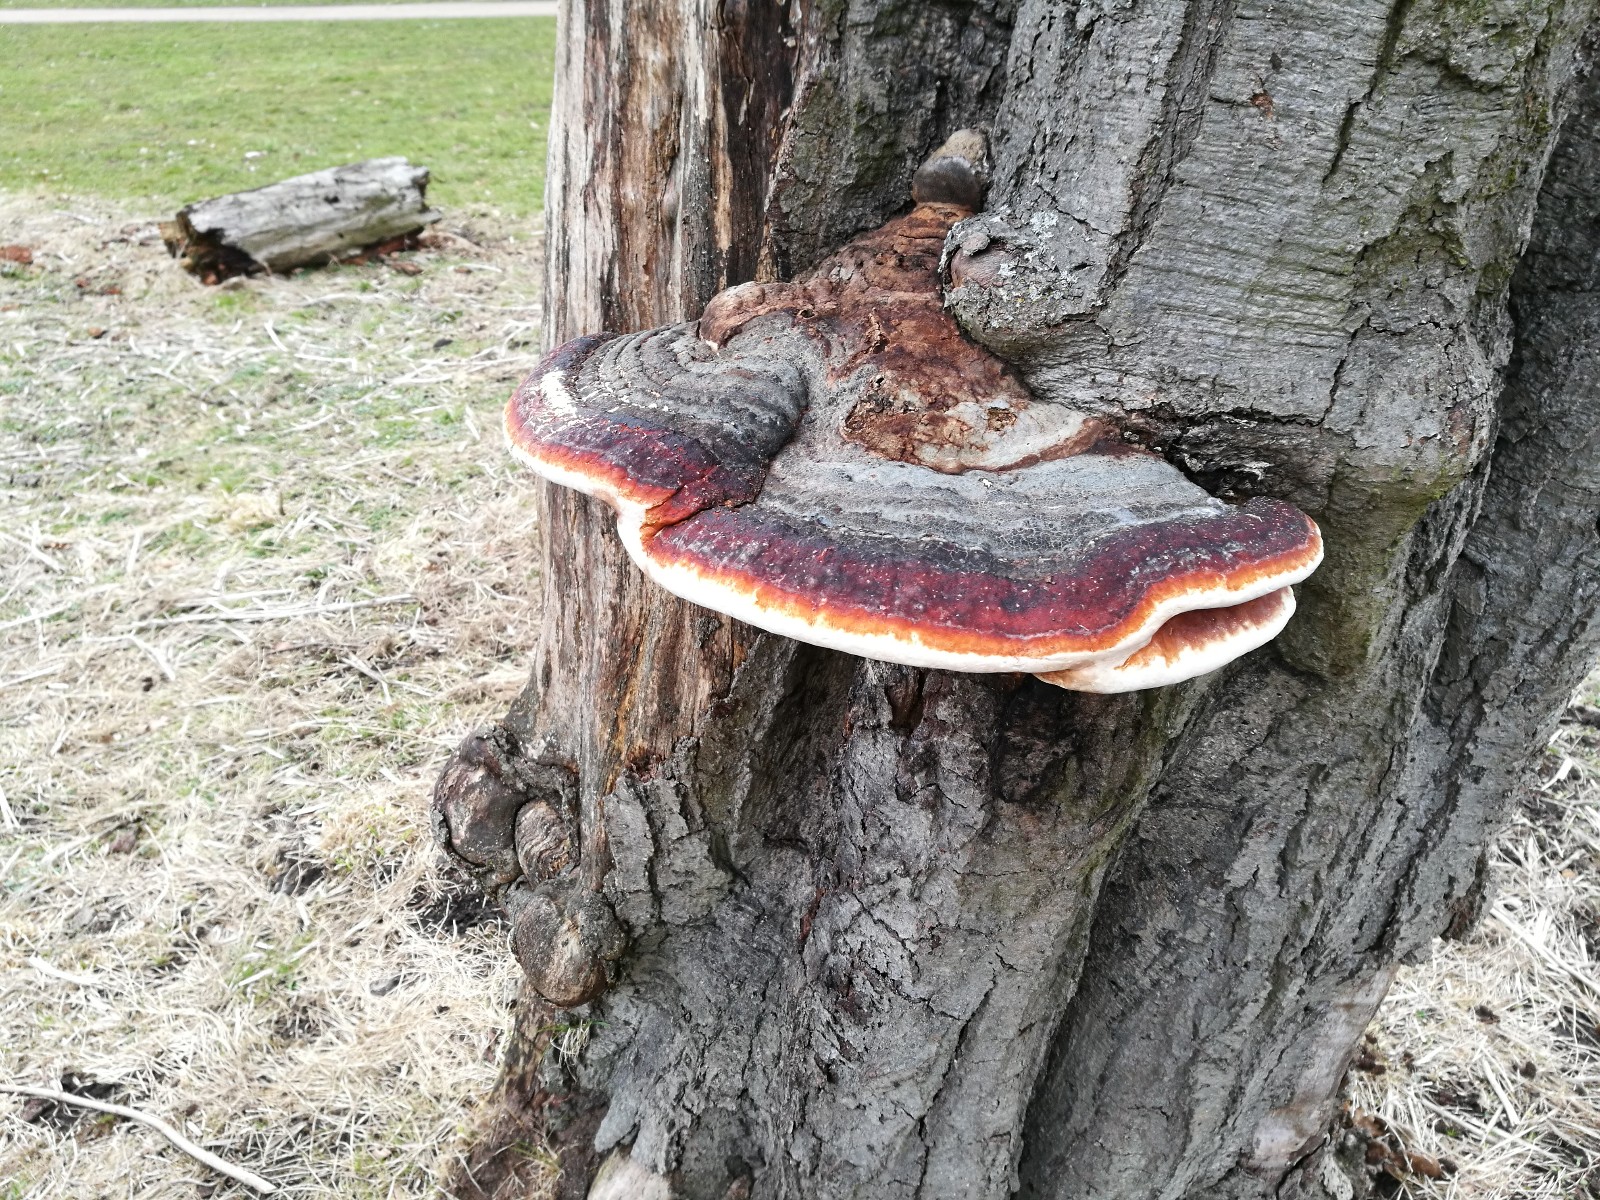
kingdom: Fungi
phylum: Basidiomycota
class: Agaricomycetes
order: Polyporales
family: Fomitopsidaceae
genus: Fomitopsis
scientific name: Fomitopsis pinicola
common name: randbæltet hovporesvamp
